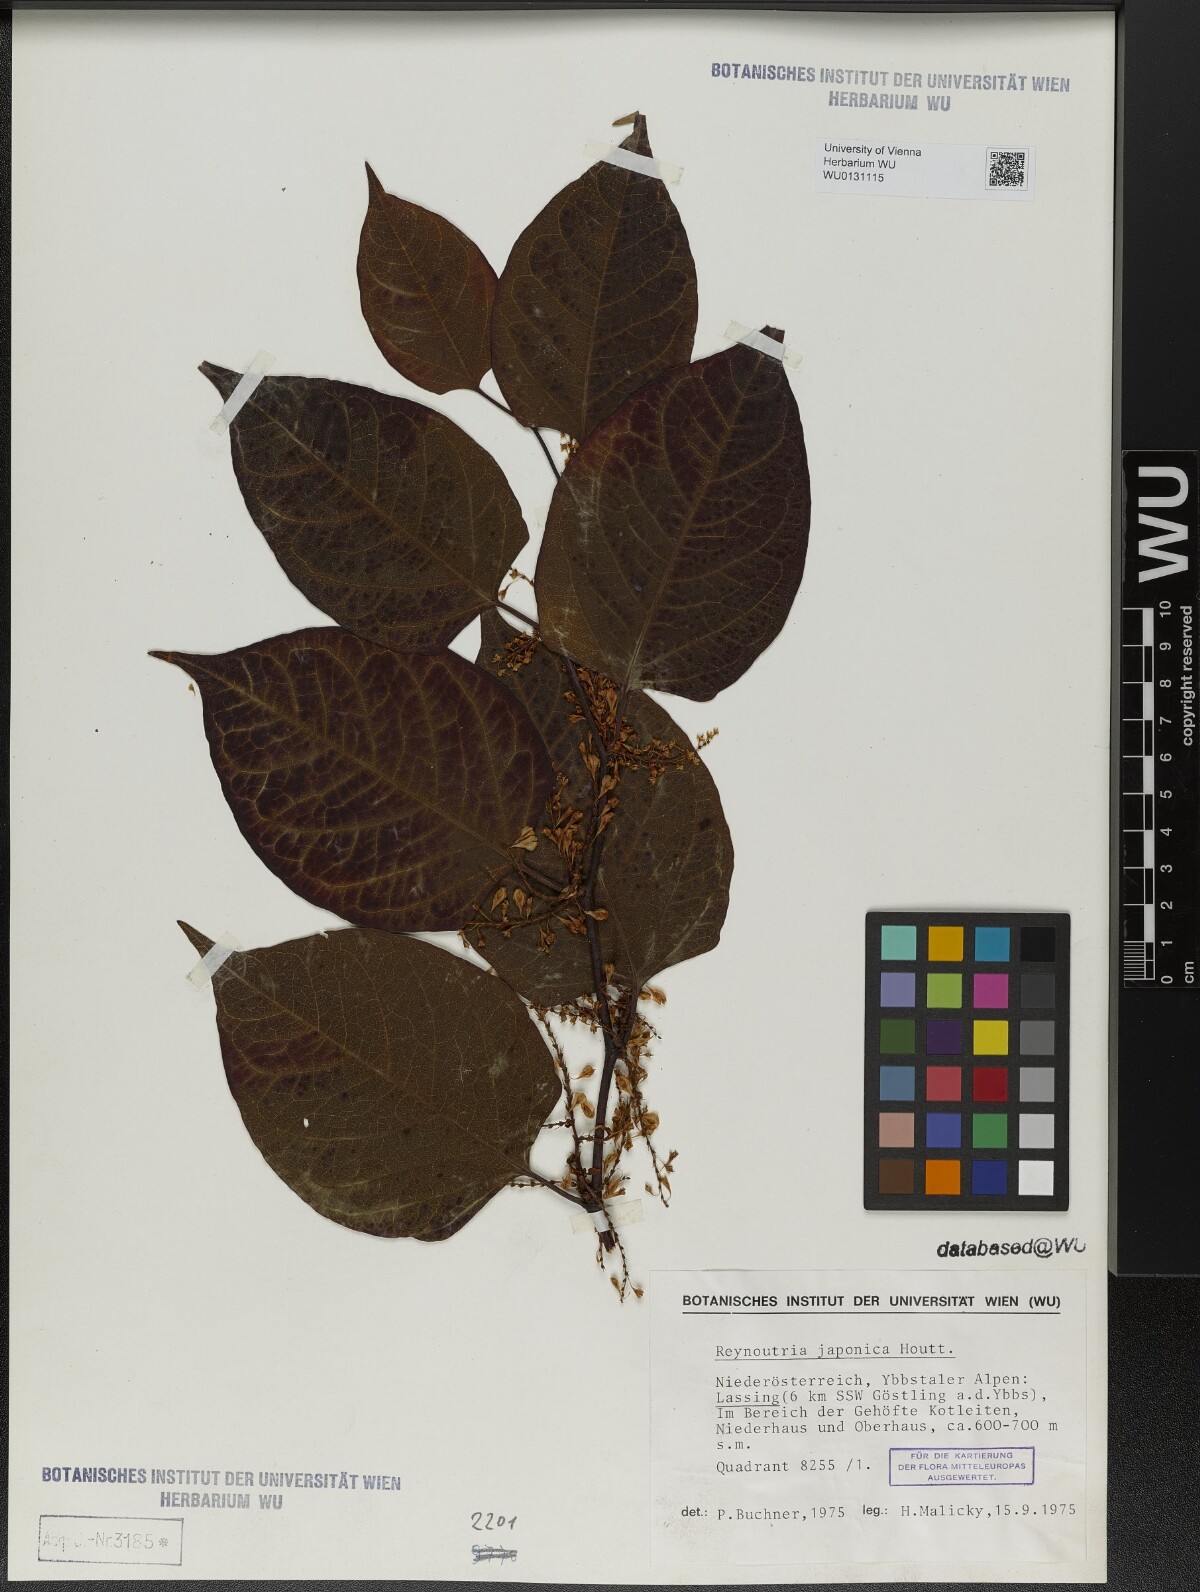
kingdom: Plantae
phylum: Tracheophyta
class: Magnoliopsida
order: Caryophyllales
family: Polygonaceae
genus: Reynoutria
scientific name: Reynoutria japonica
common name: Japanese knotweed
